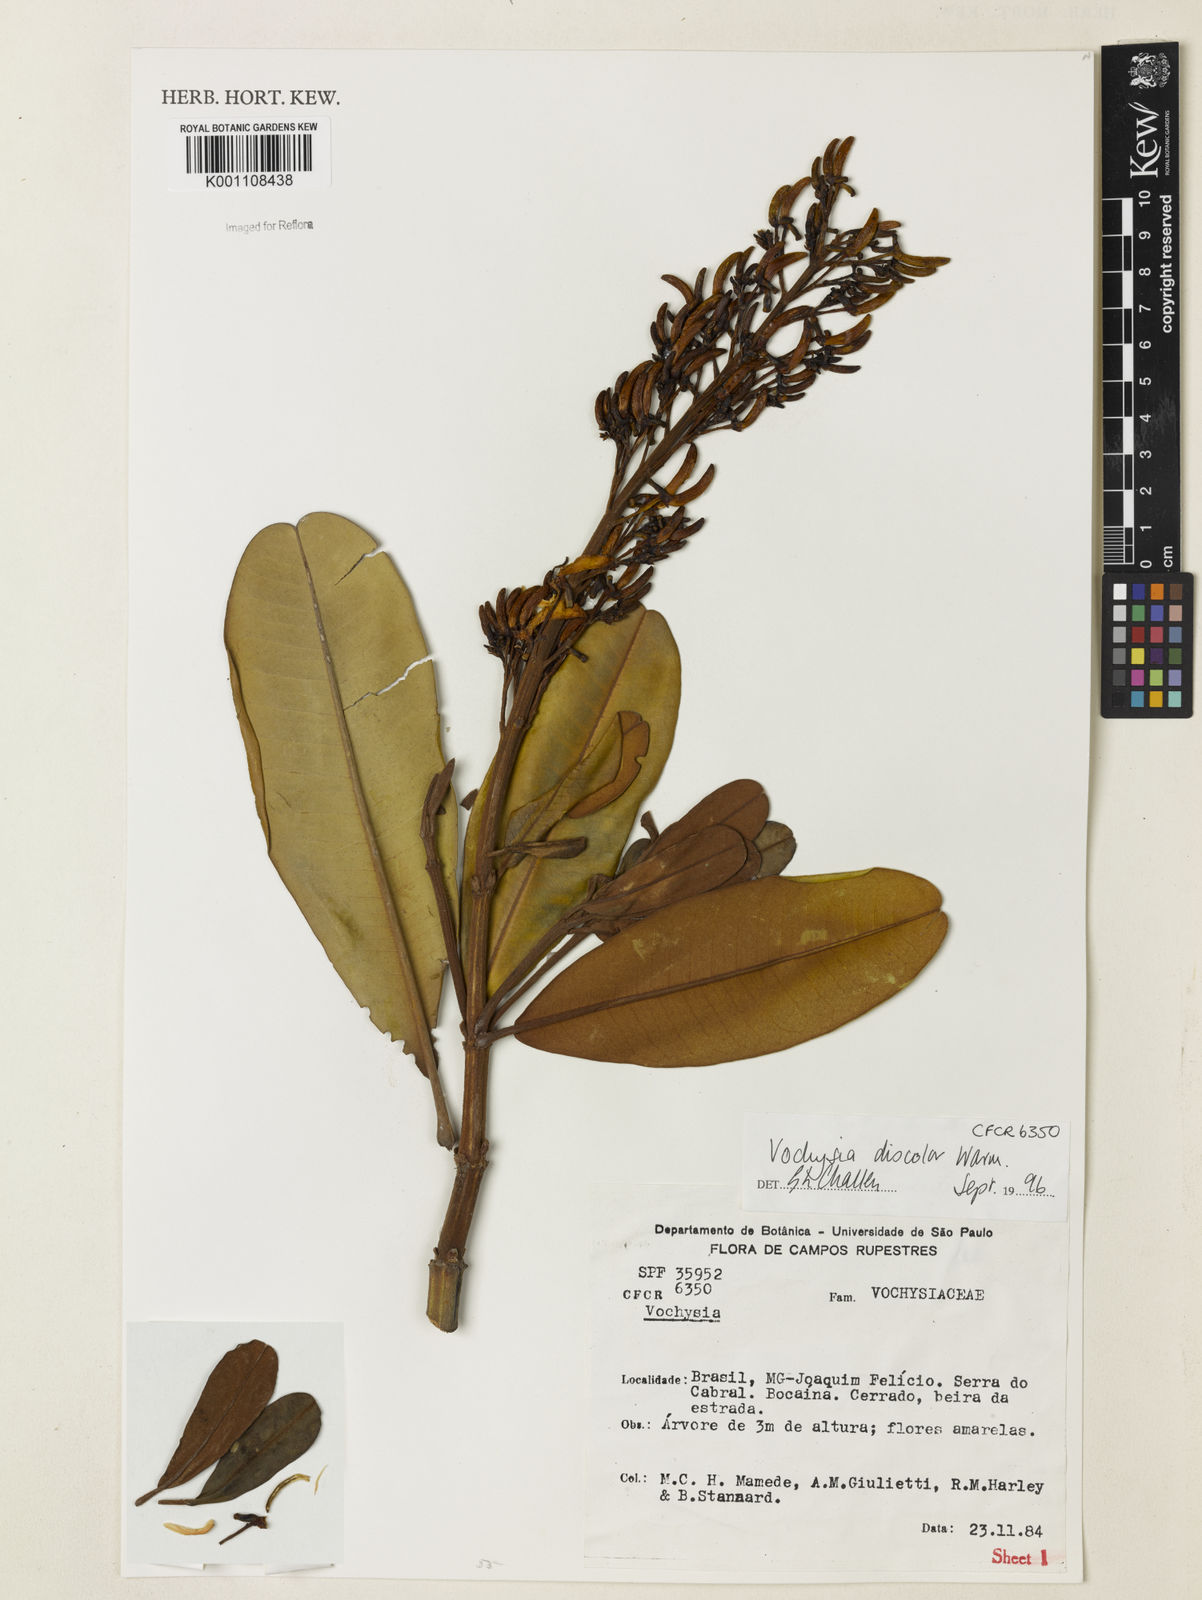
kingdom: Plantae
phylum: Tracheophyta
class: Magnoliopsida
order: Myrtales
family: Vochysiaceae
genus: Vochysia
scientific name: Vochysia discolor
